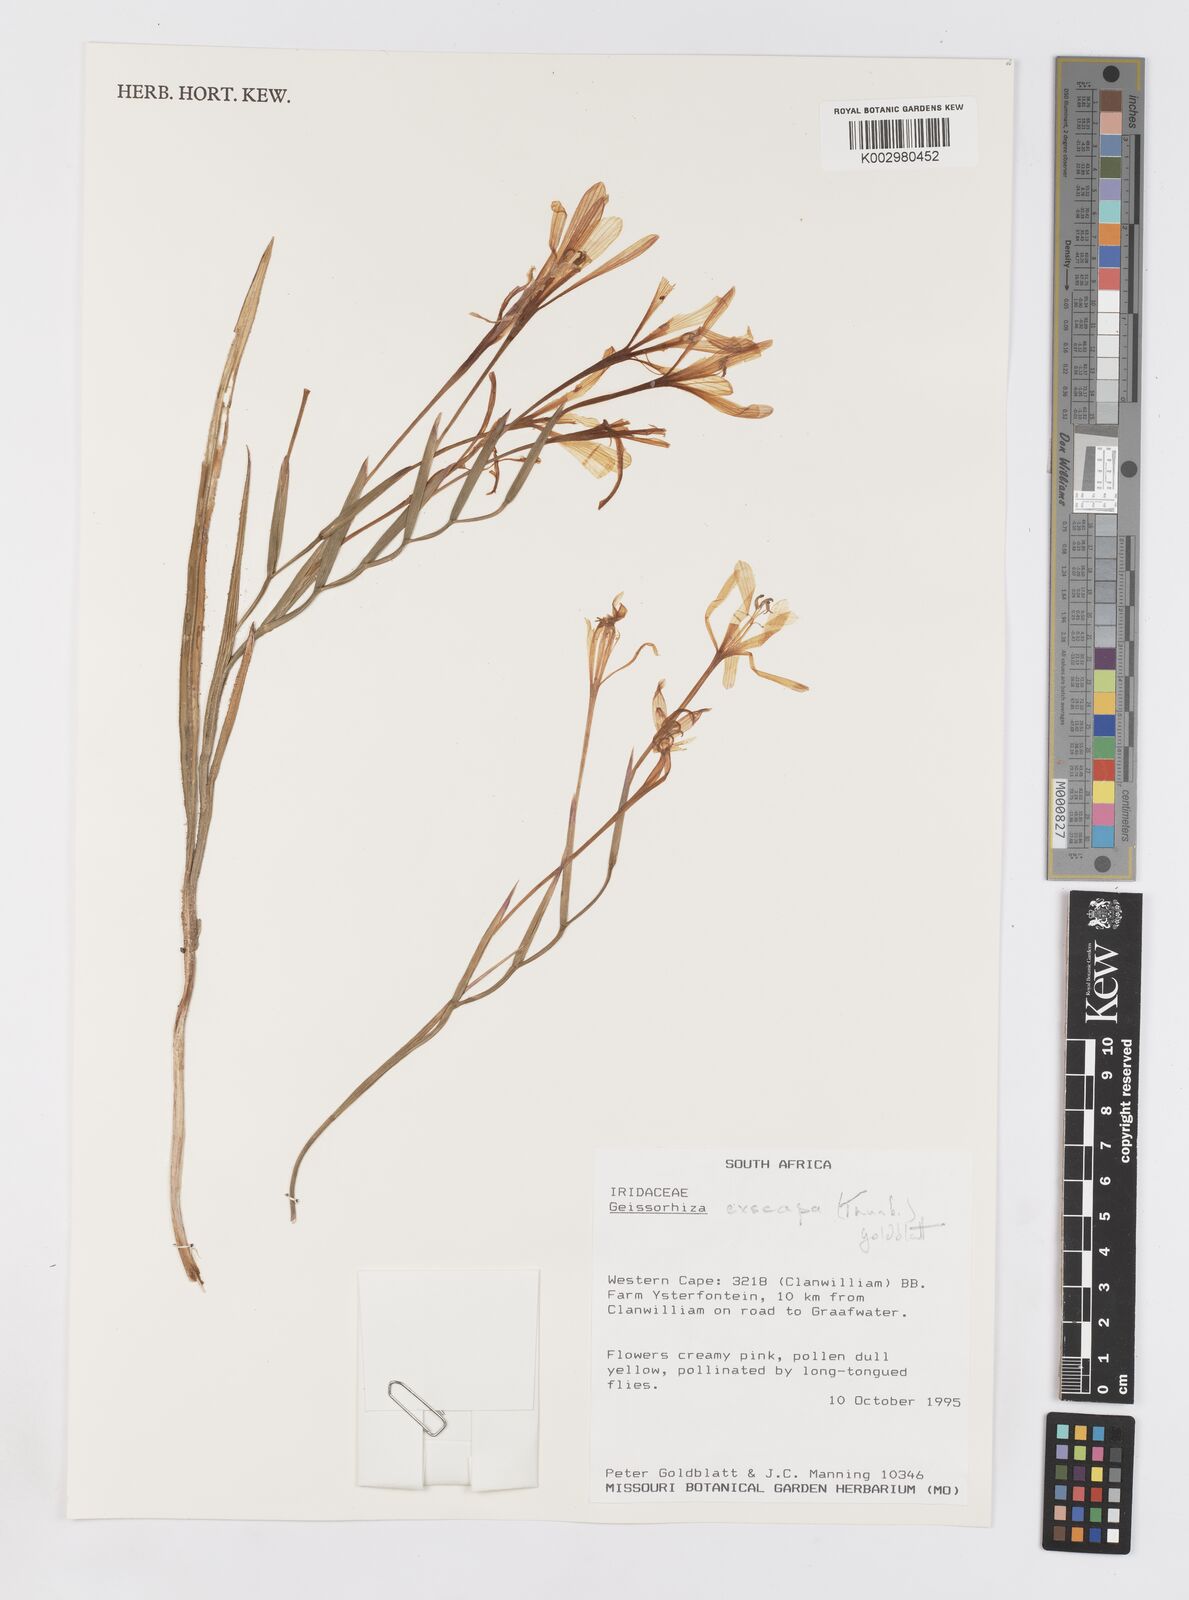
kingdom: Plantae
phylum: Tracheophyta
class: Liliopsida
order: Asparagales
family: Iridaceae
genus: Geissorhiza
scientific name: Geissorhiza exscapa
